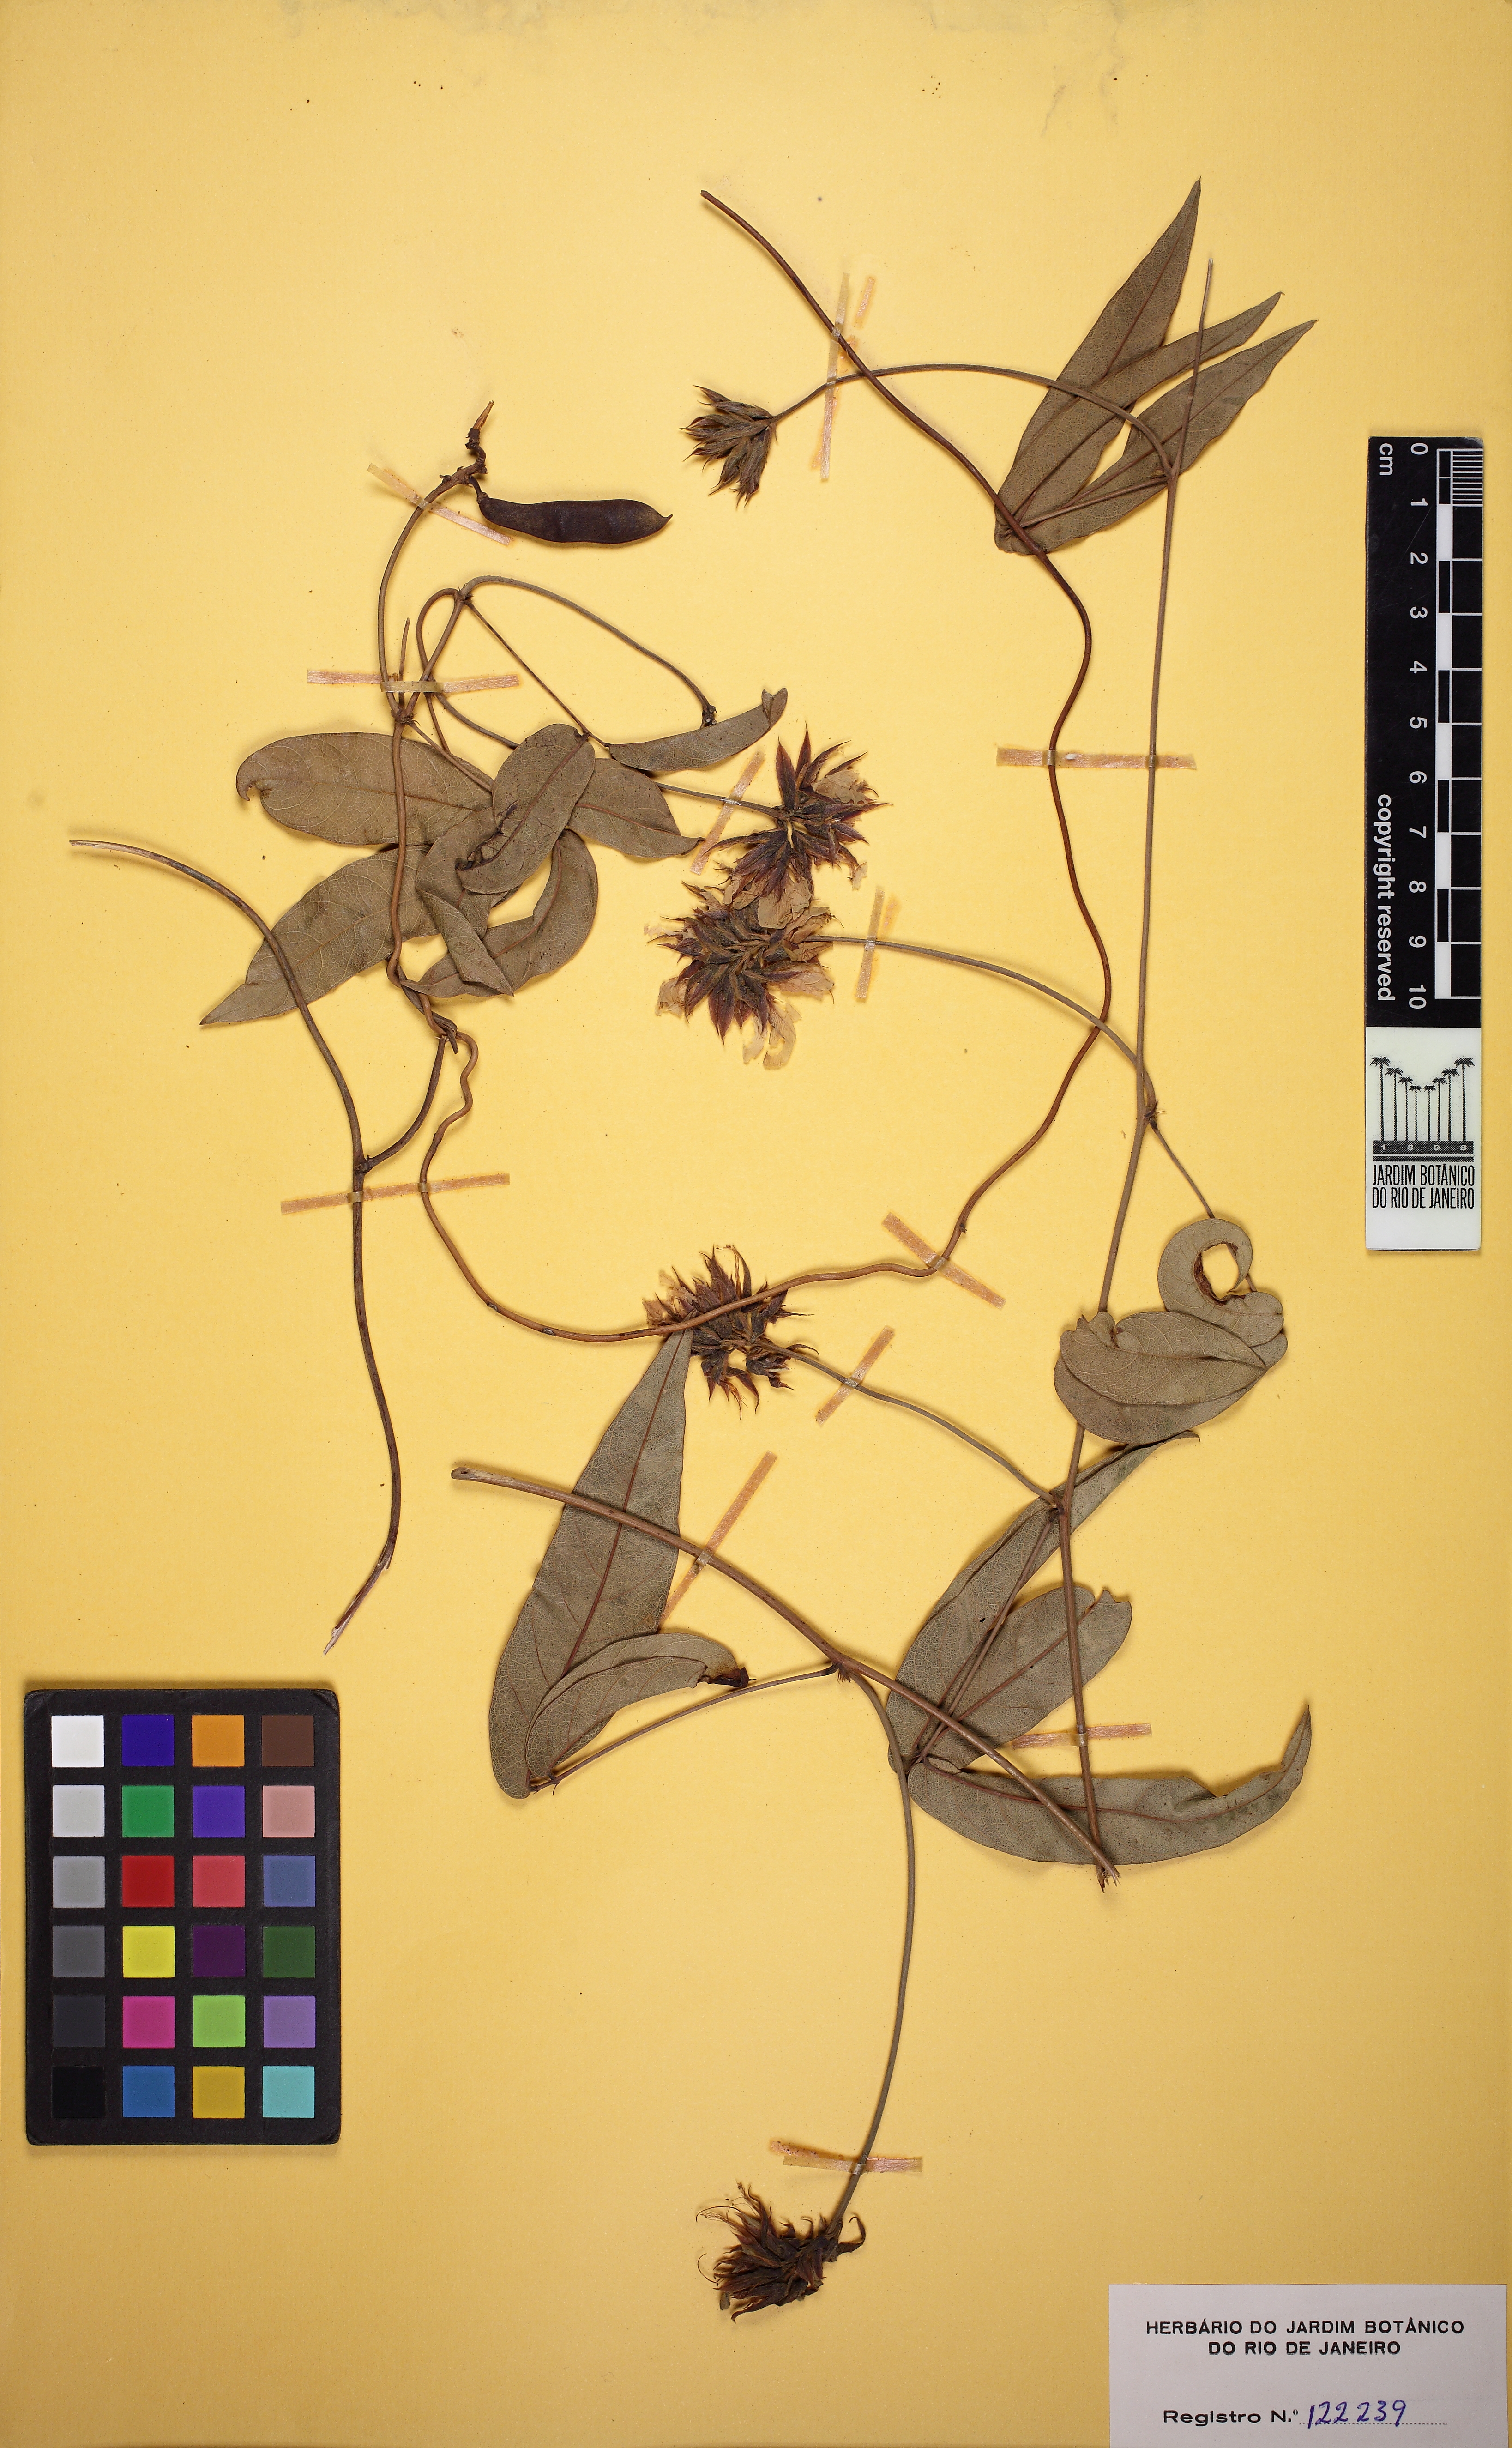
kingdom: Plantae
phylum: Tracheophyta
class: Magnoliopsida
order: Fabales
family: Fabaceae
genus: Galactia
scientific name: Galactia
